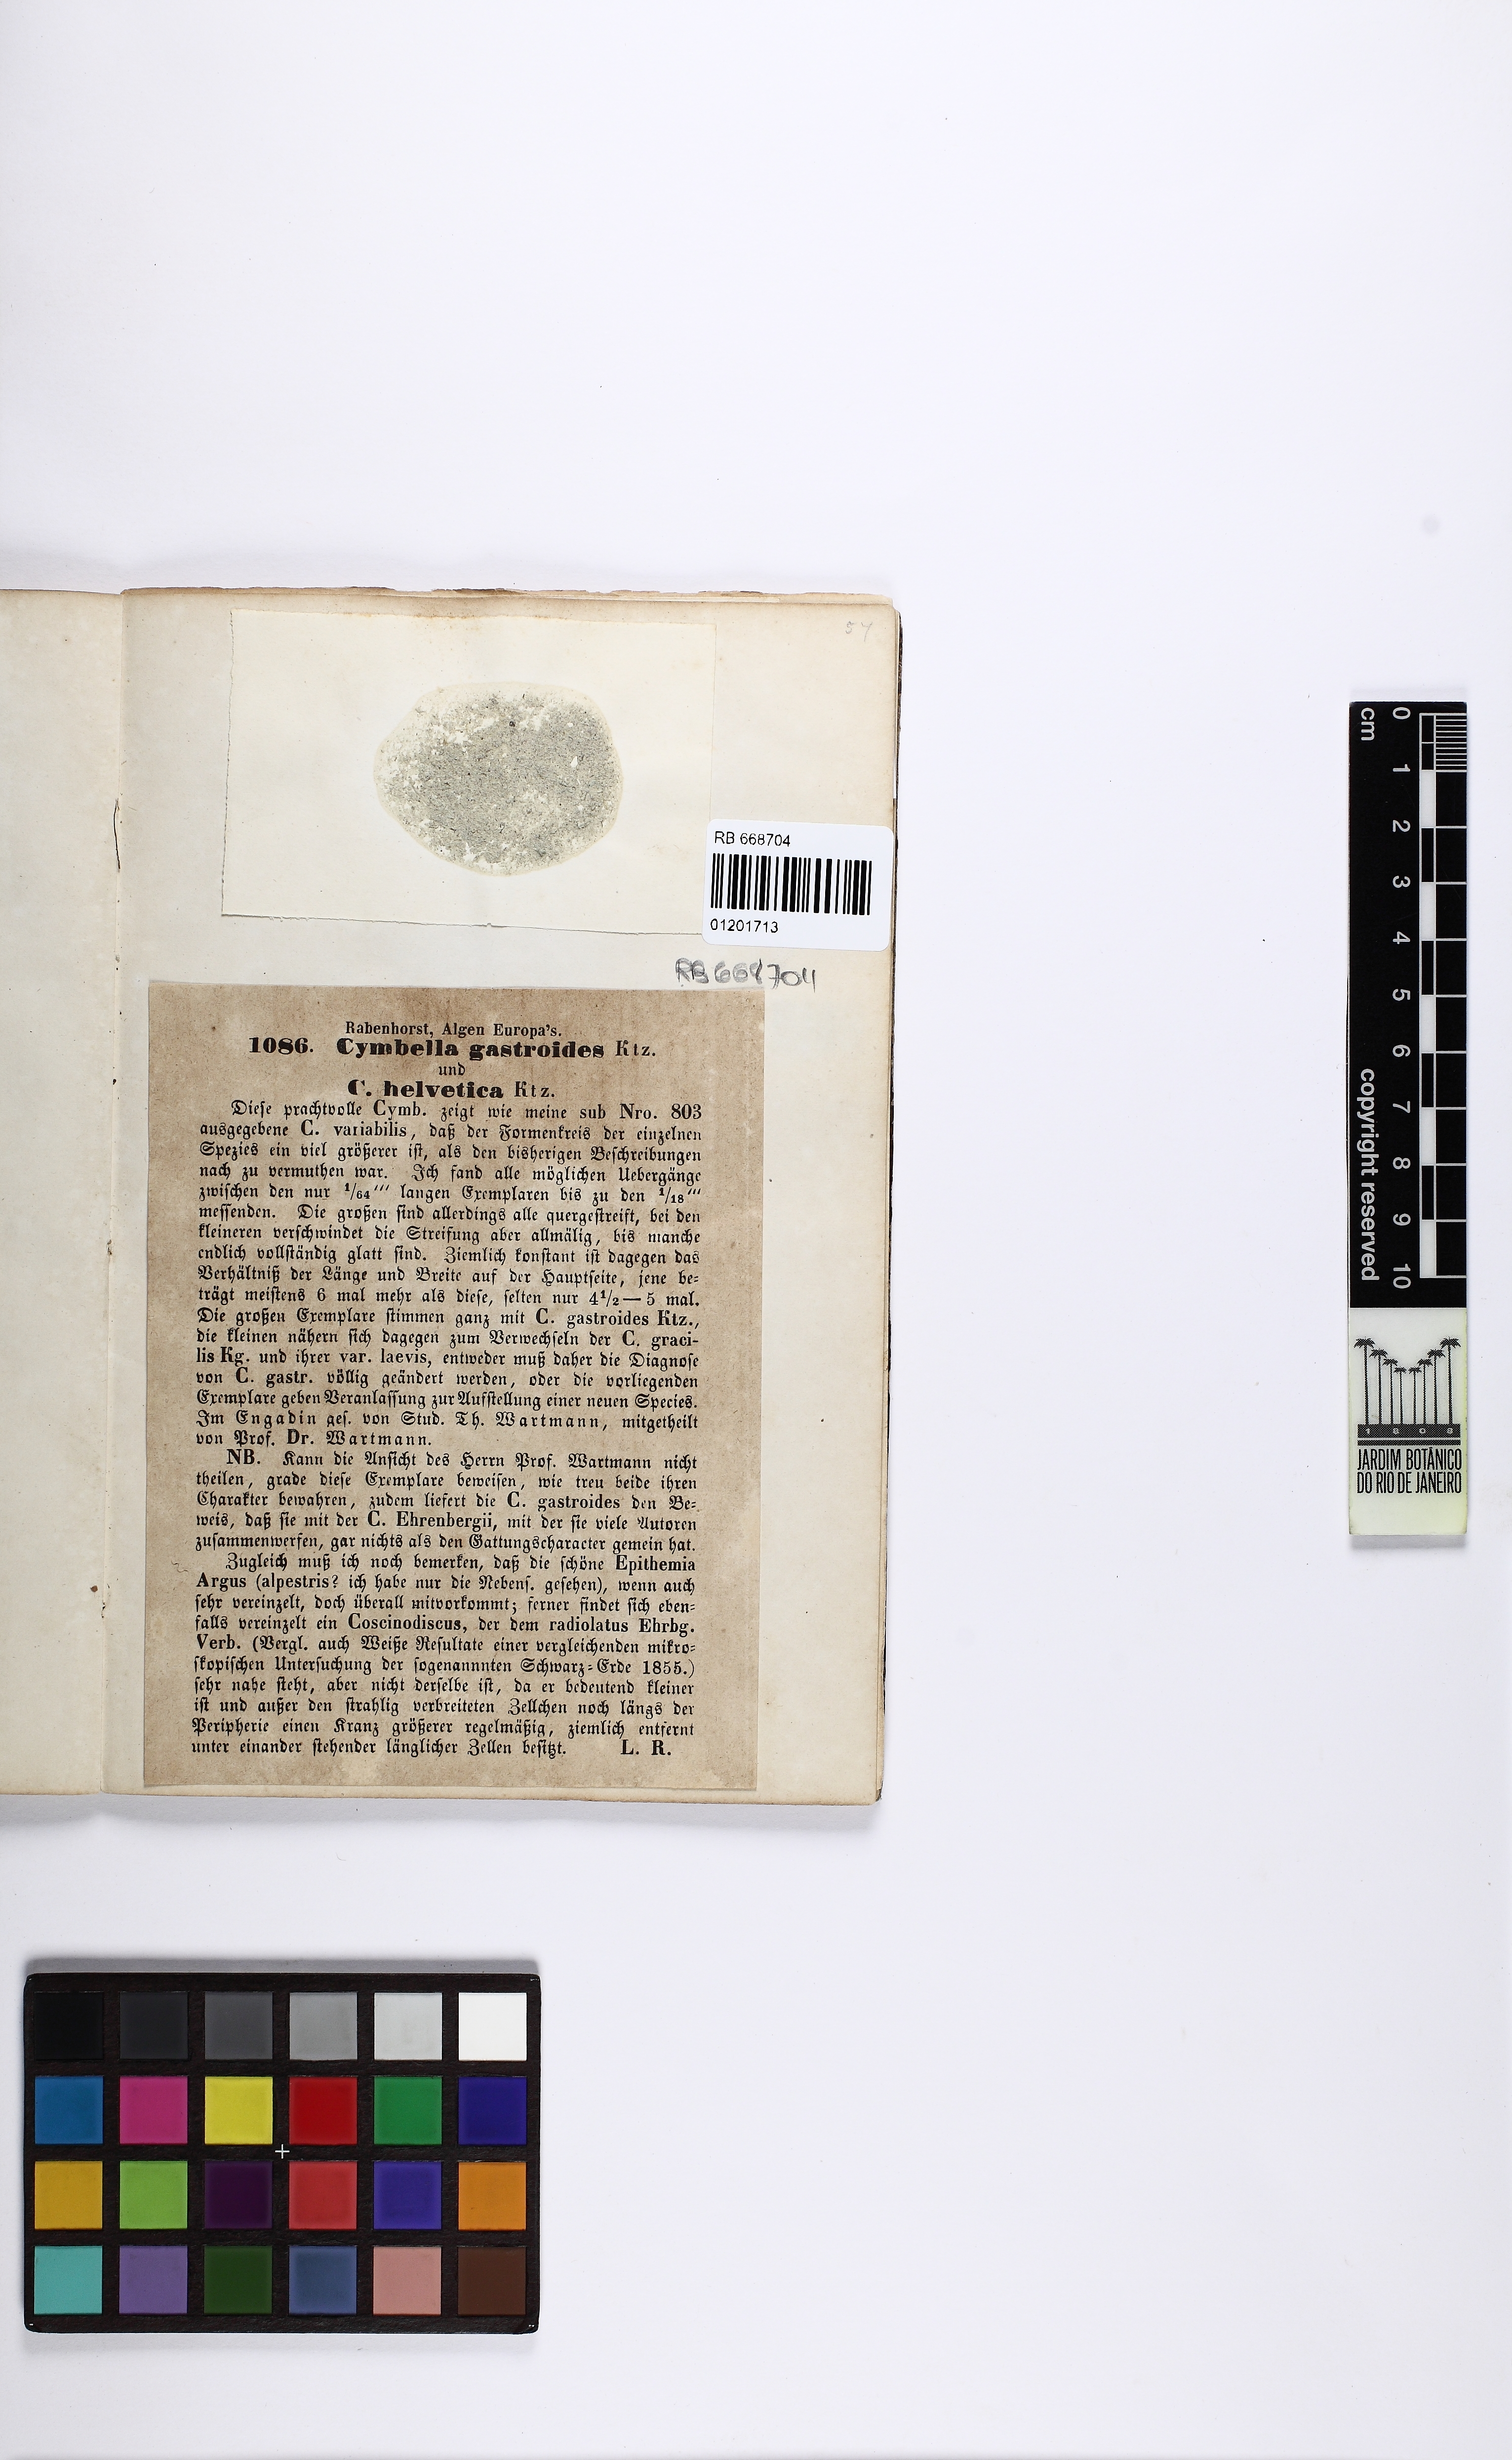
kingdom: Chromista
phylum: Ochrophyta
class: Bacillariophyceae
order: Naviculales
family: Amphipleuraceae
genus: Frustulia
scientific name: Frustulia gastroides
